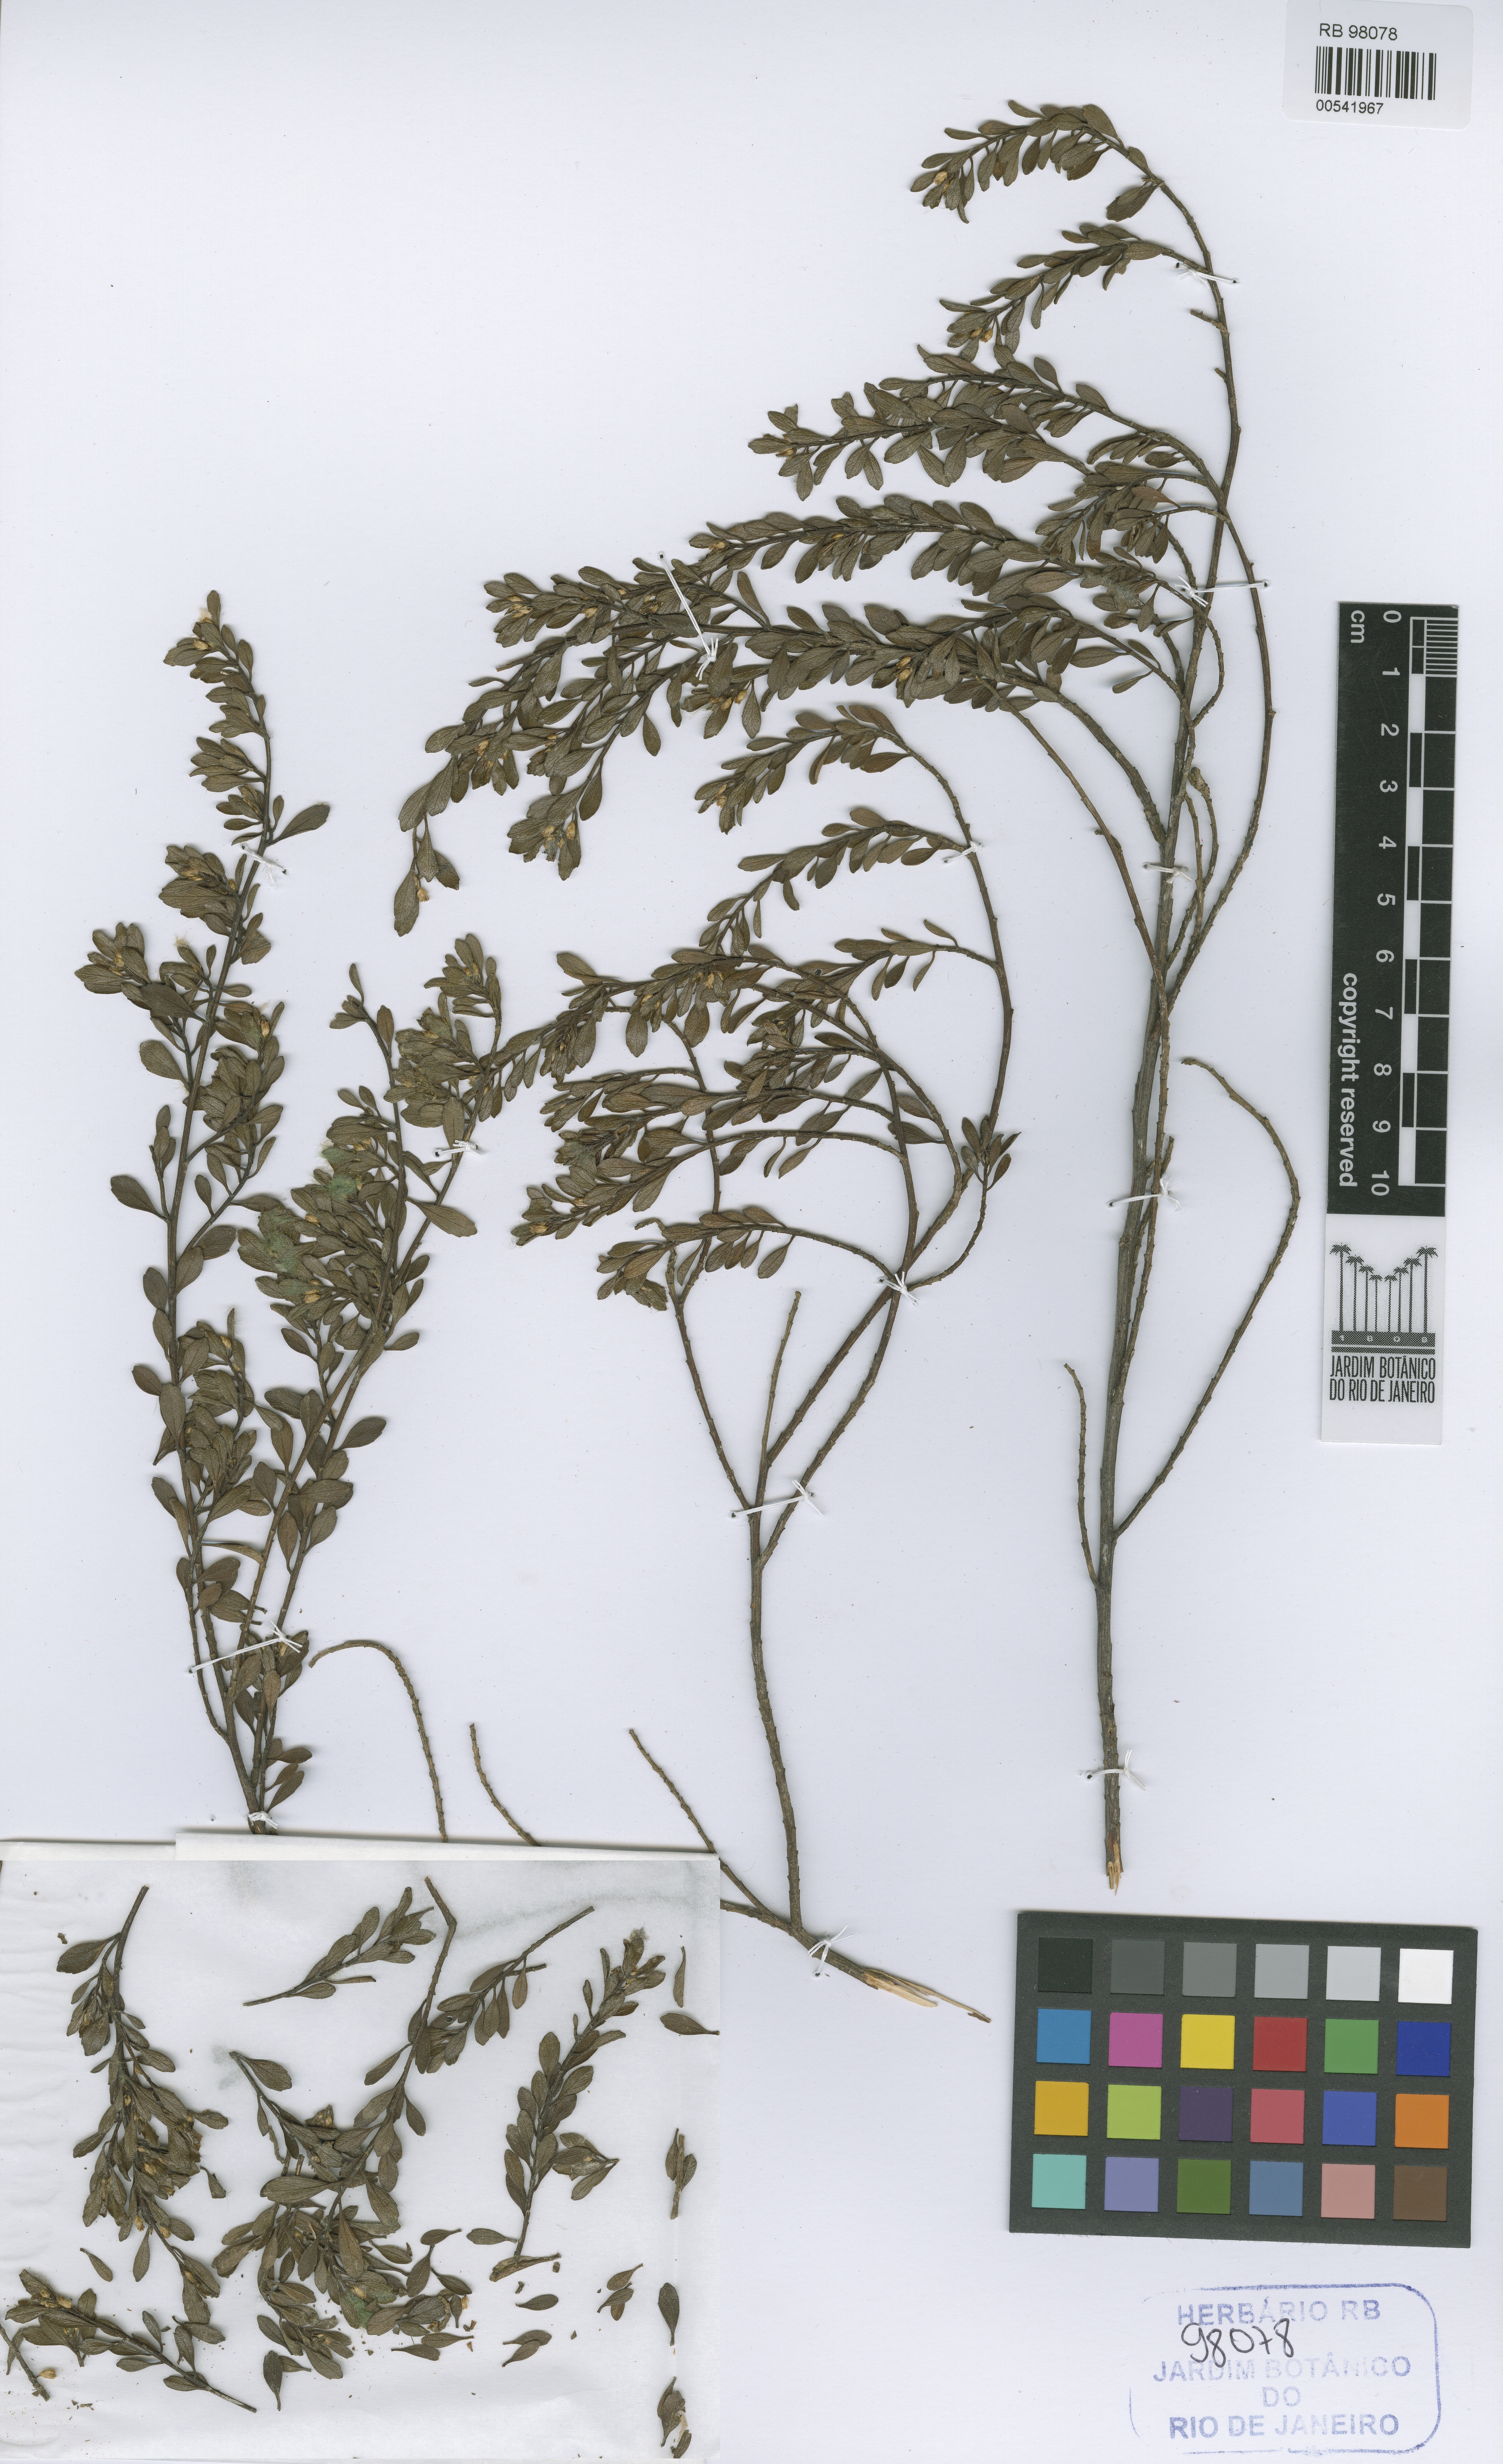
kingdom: Plantae
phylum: Tracheophyta
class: Magnoliopsida
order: Asterales
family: Asteraceae
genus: Baccharis
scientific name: Baccharis concinna
